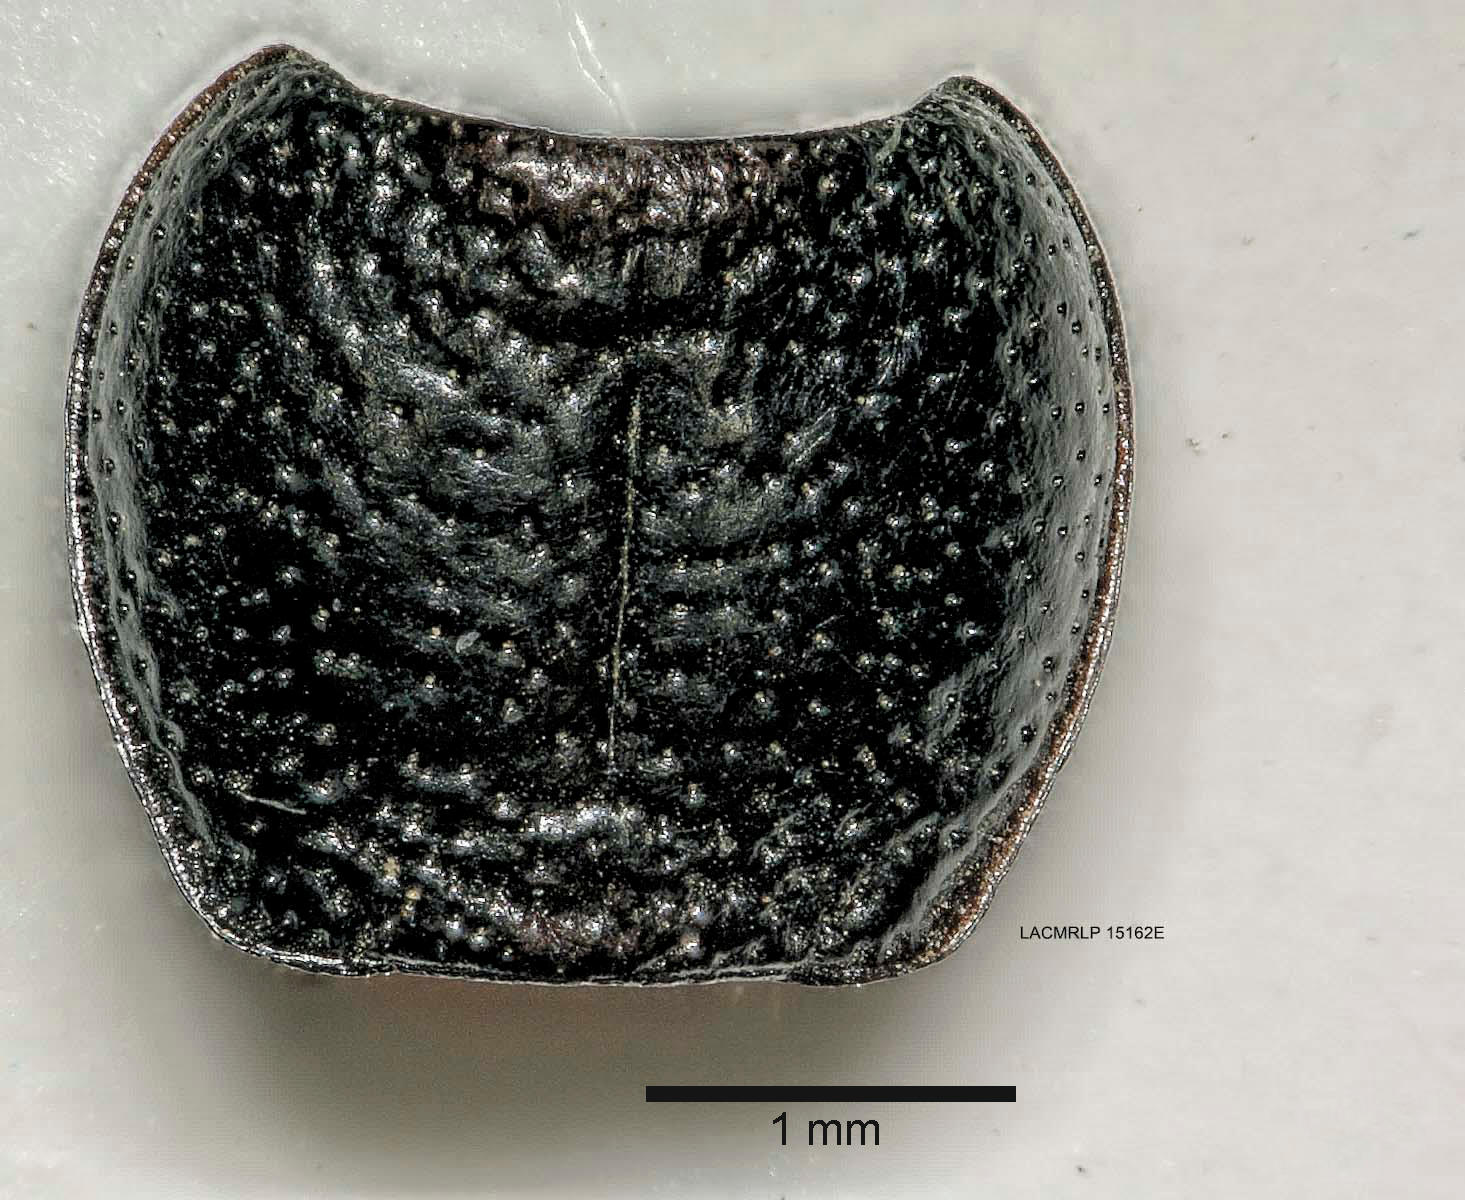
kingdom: Animalia
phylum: Arthropoda
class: Insecta
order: Coleoptera
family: Carabidae
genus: Dicheirus
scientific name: Dicheirus dilatatus
